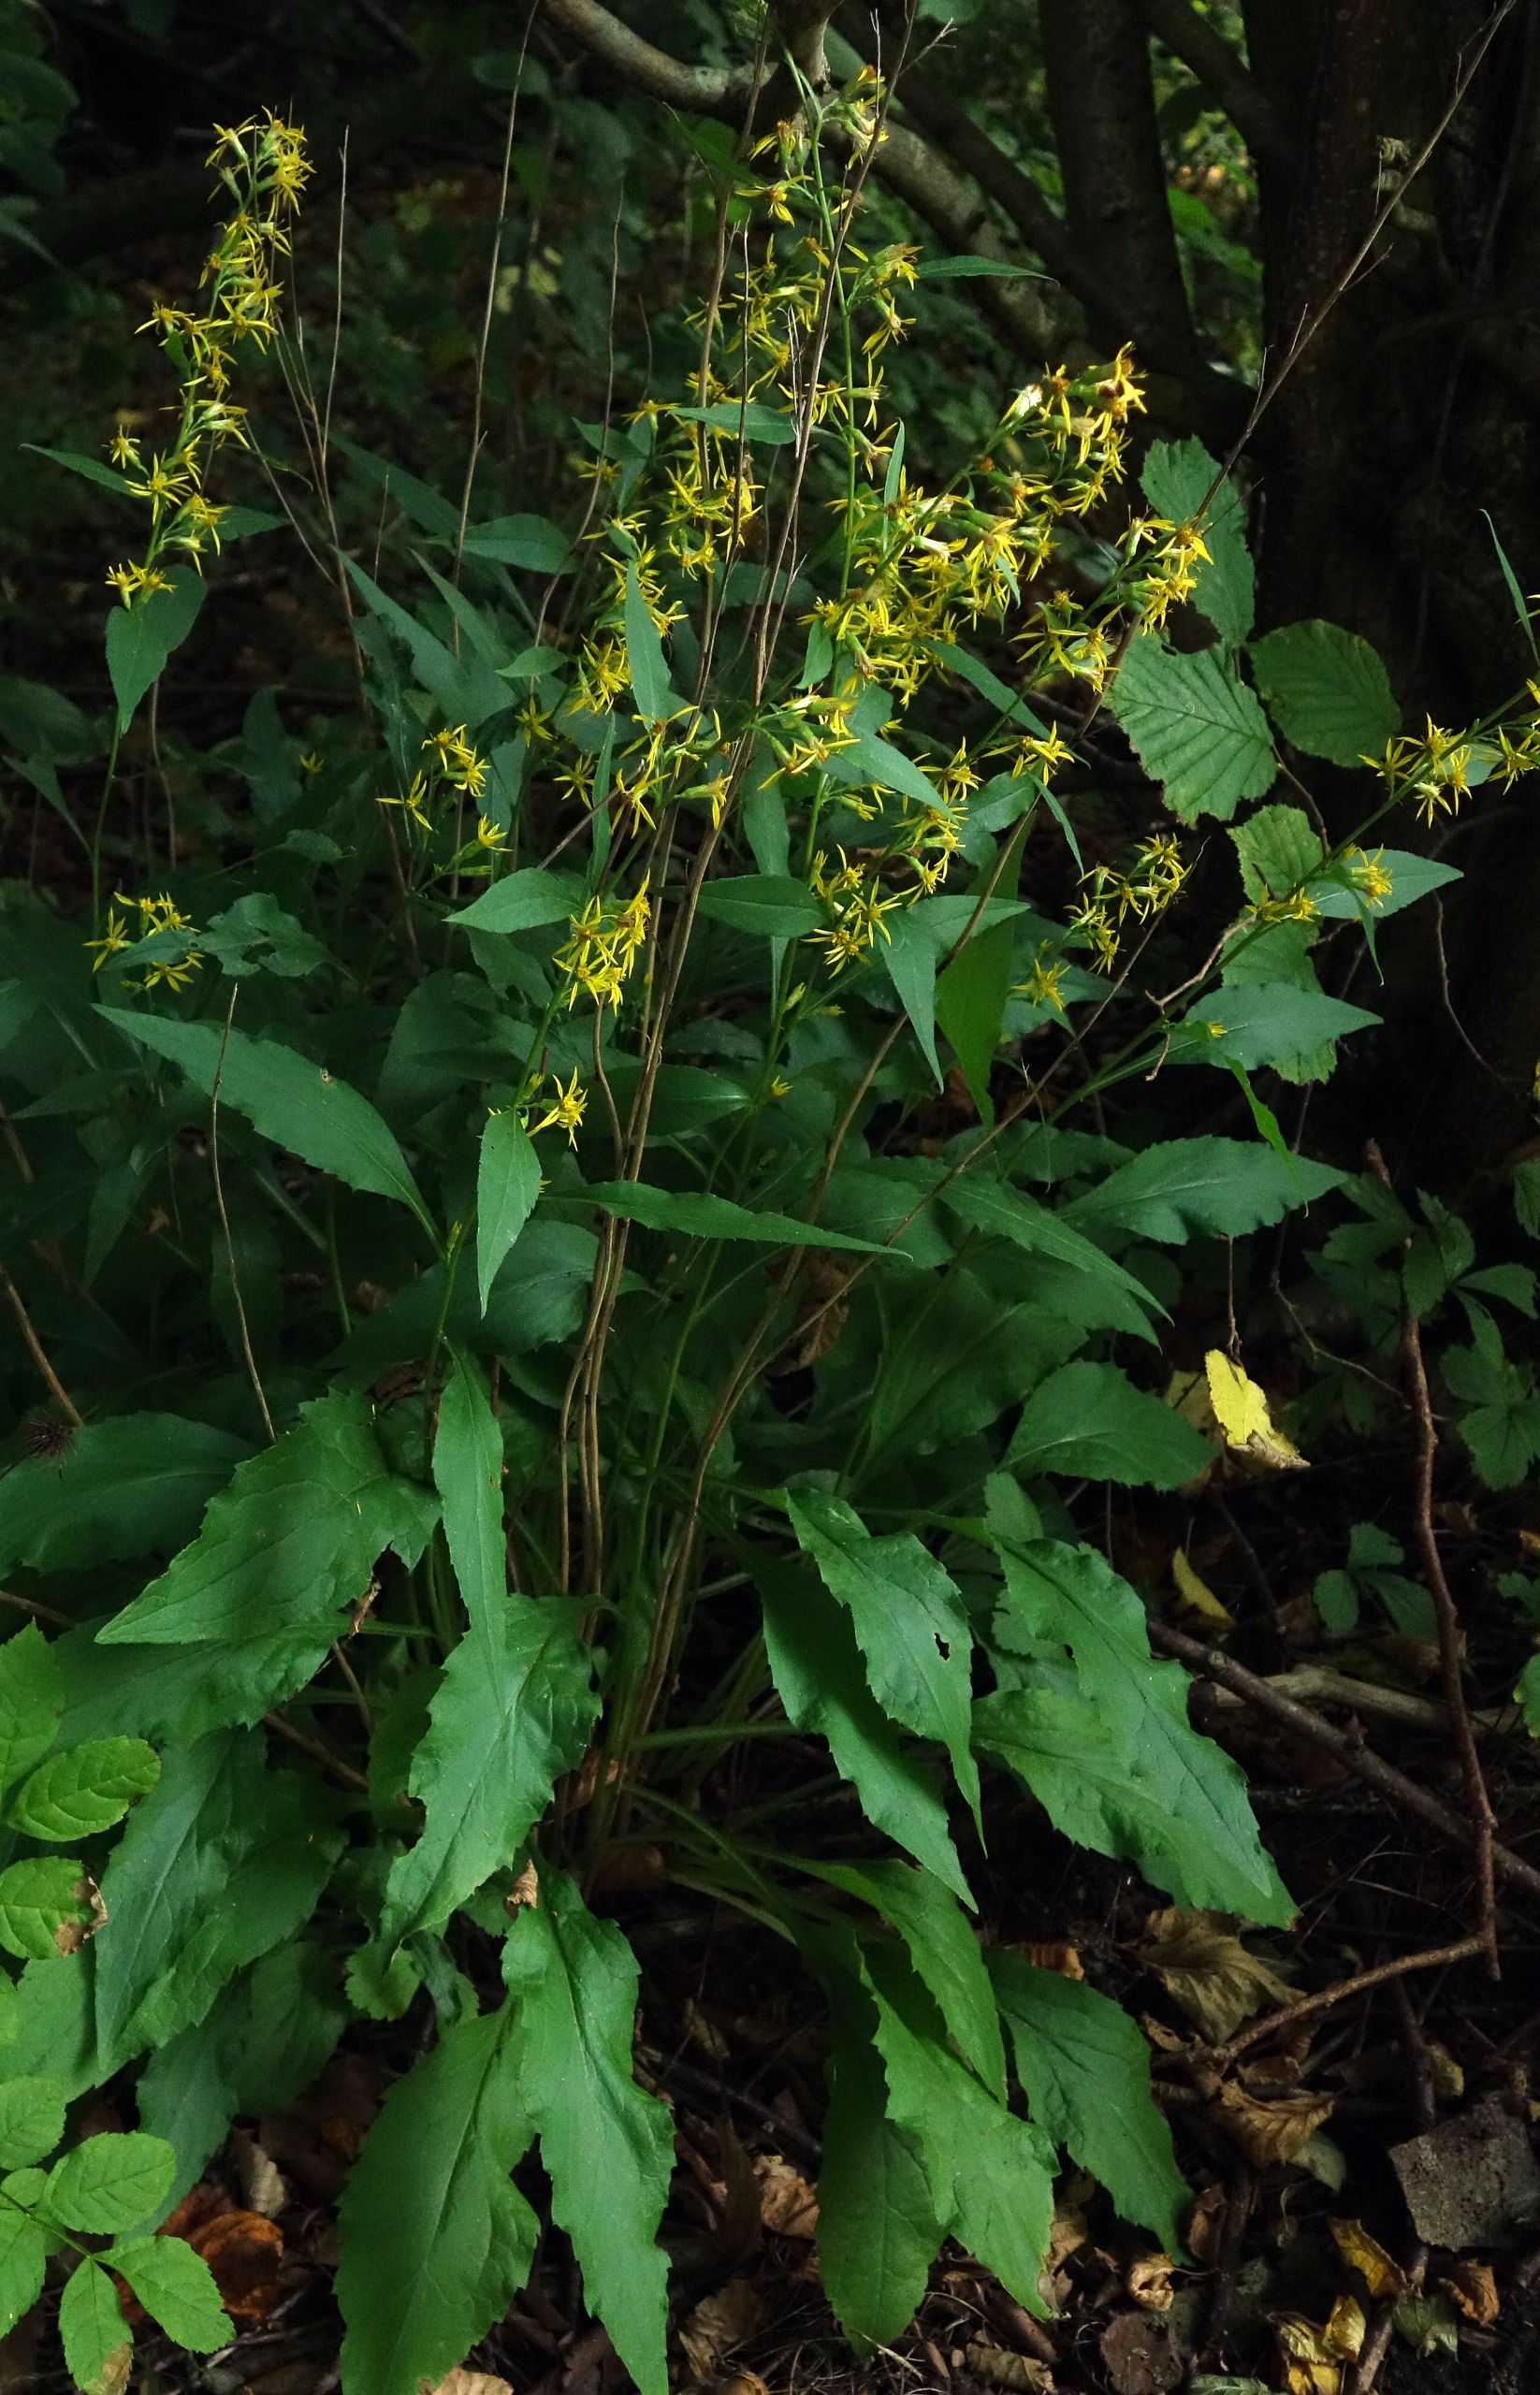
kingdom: Plantae
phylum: Tracheophyta
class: Magnoliopsida
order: Asterales
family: Asteraceae
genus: Solidago
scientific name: Solidago virgaurea
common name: Almindelig gyldenris
